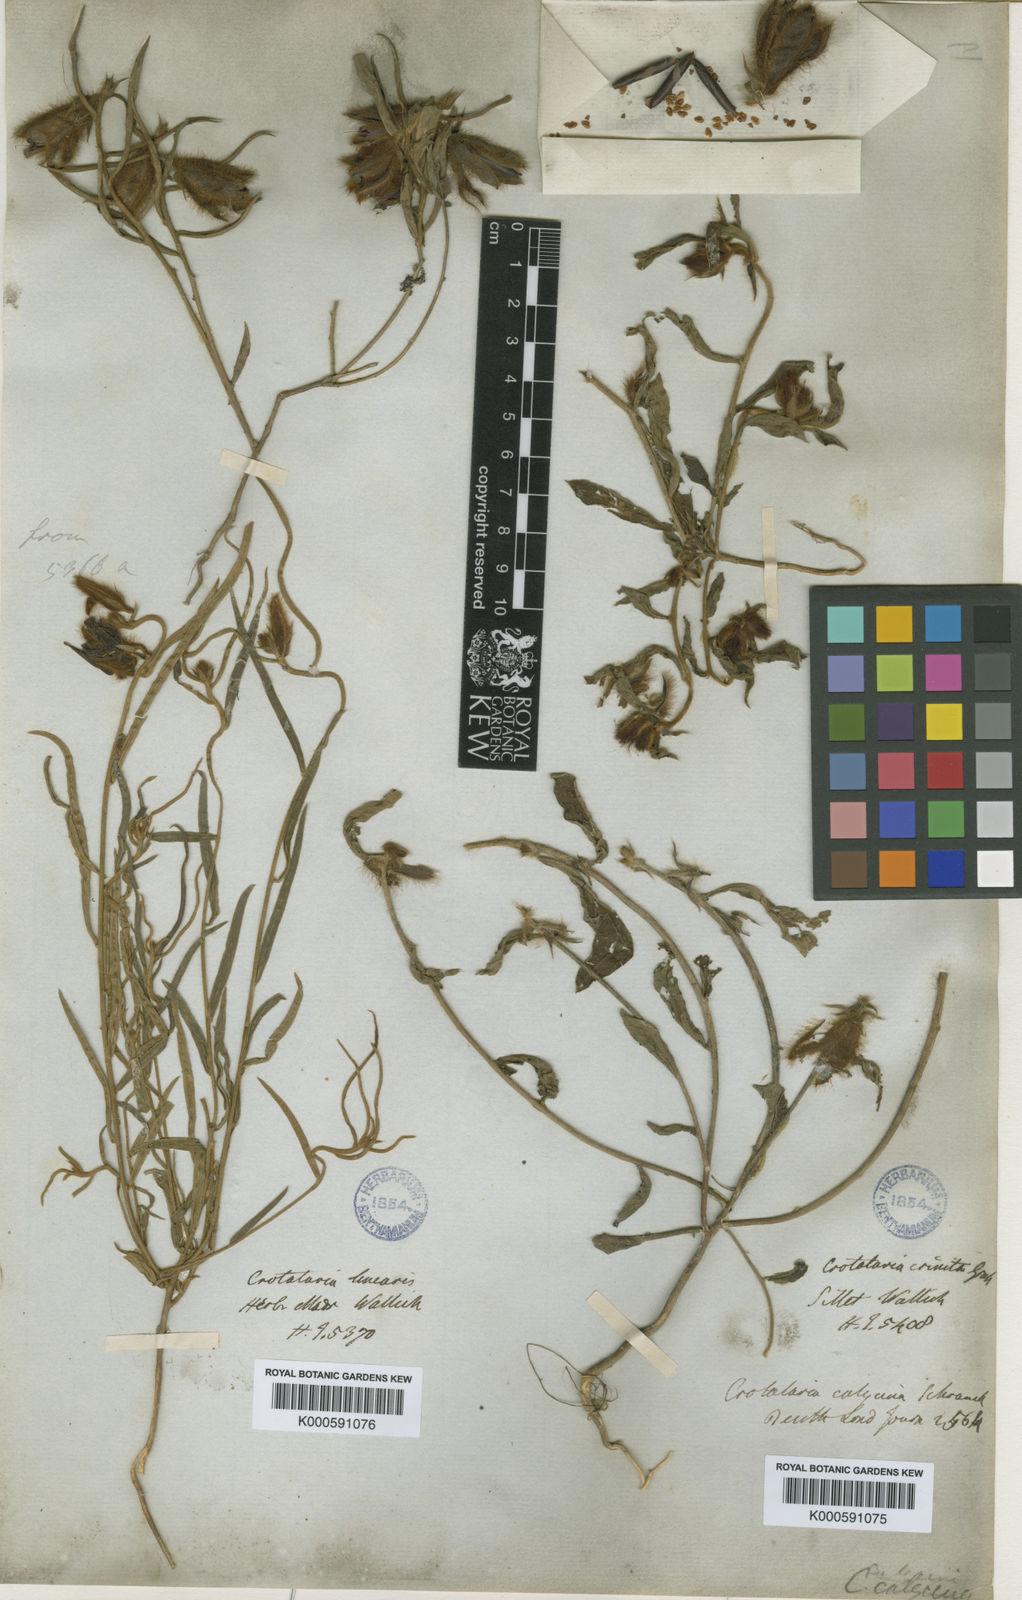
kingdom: Plantae
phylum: Tracheophyta
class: Magnoliopsida
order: Fabales
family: Fabaceae
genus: Crotalaria
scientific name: Crotalaria
